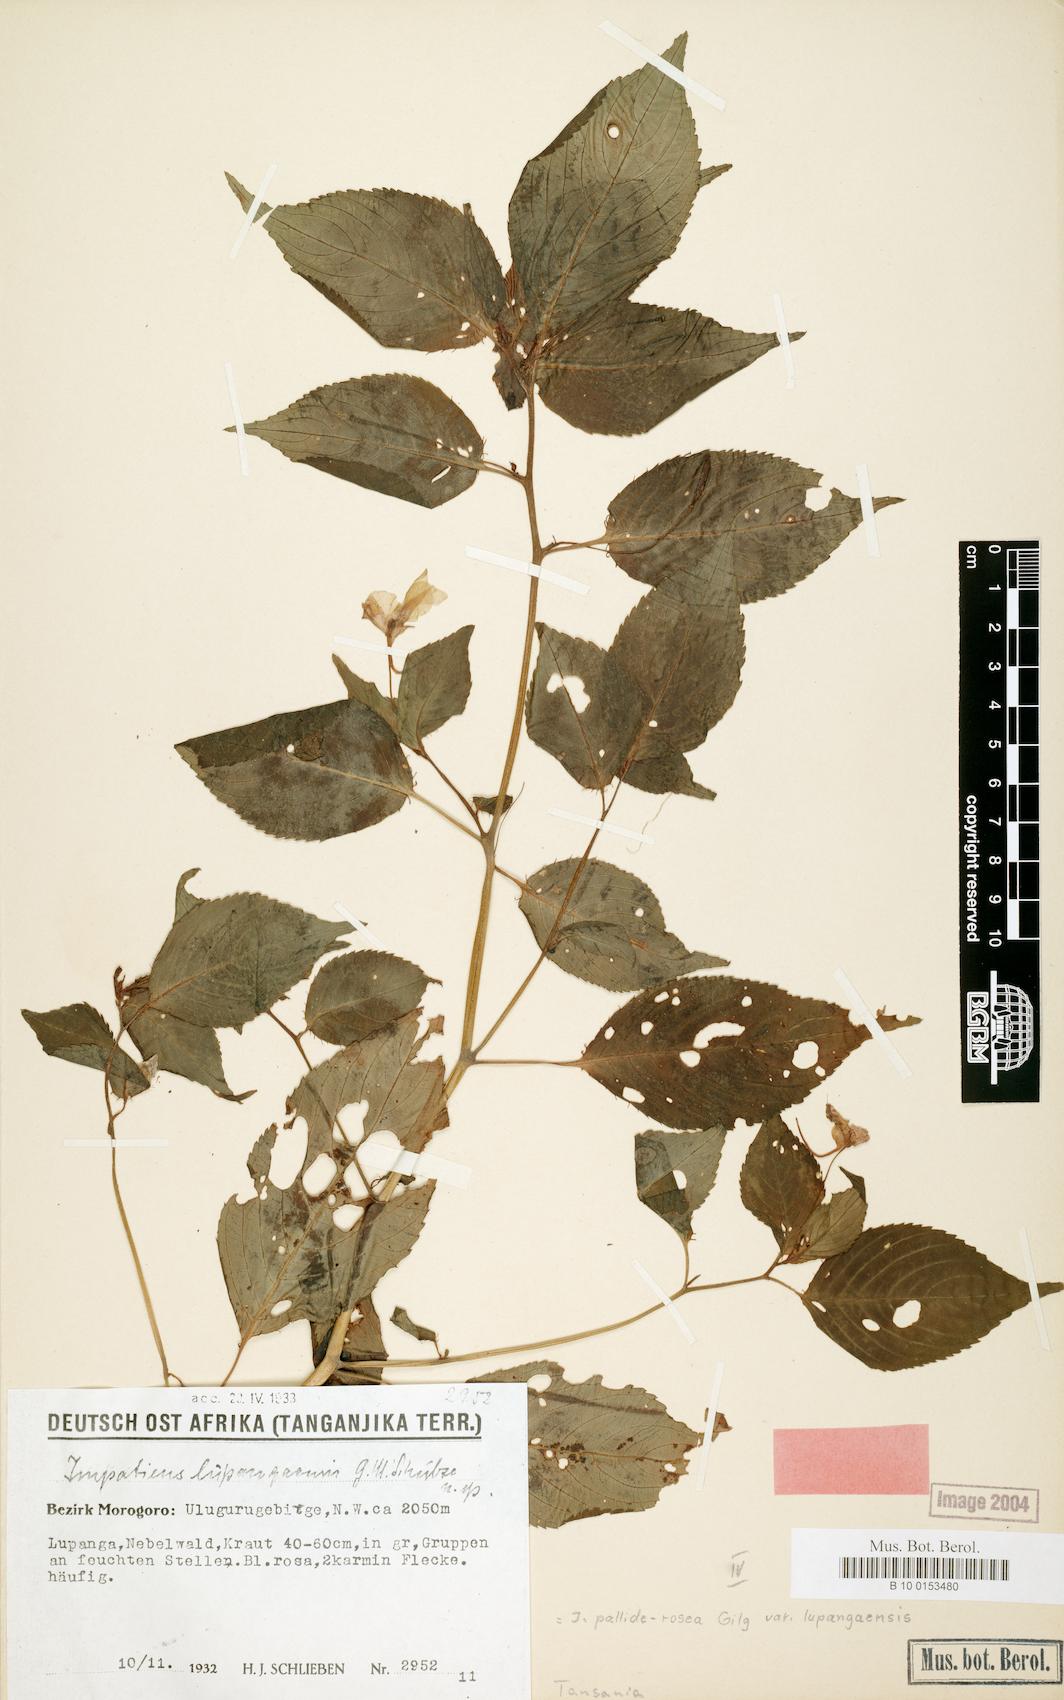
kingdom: Plantae
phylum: Tracheophyta
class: Magnoliopsida
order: Ericales
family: Balsaminaceae
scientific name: Balsaminaceae
